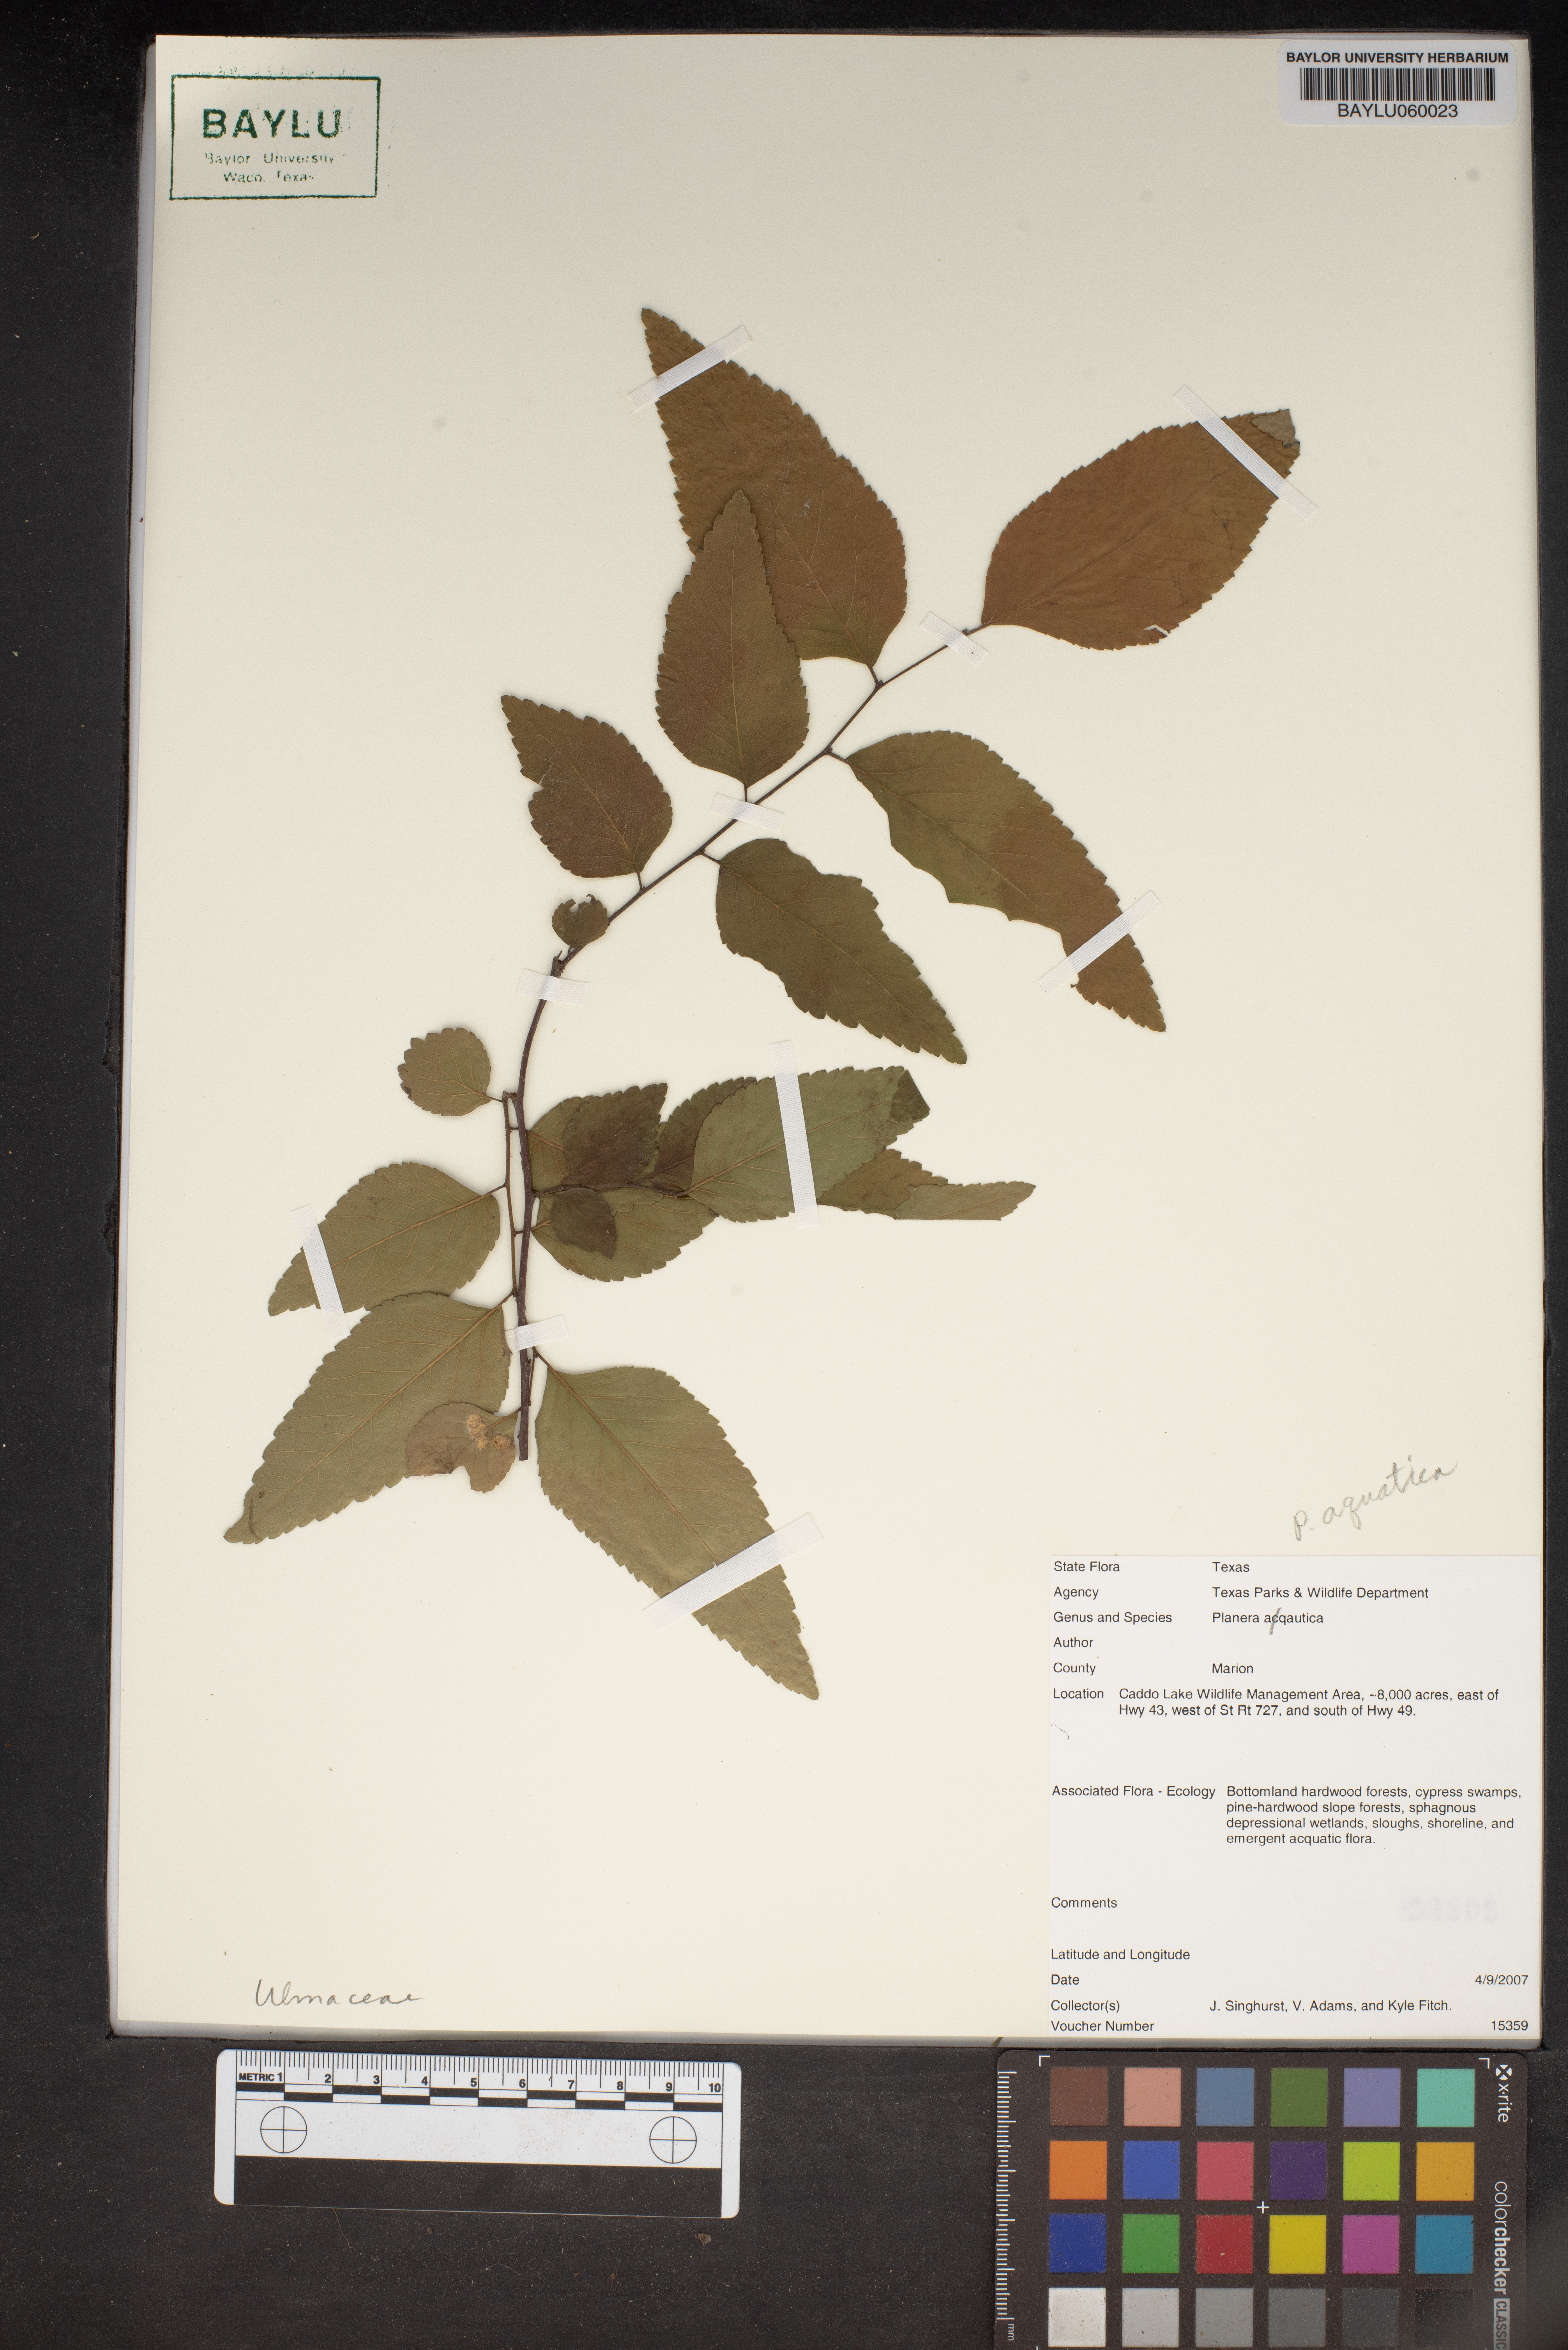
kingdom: Plantae
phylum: Tracheophyta
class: Magnoliopsida
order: Rosales
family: Ulmaceae
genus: Planera
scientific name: Planera aquatica
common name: Water-elm
